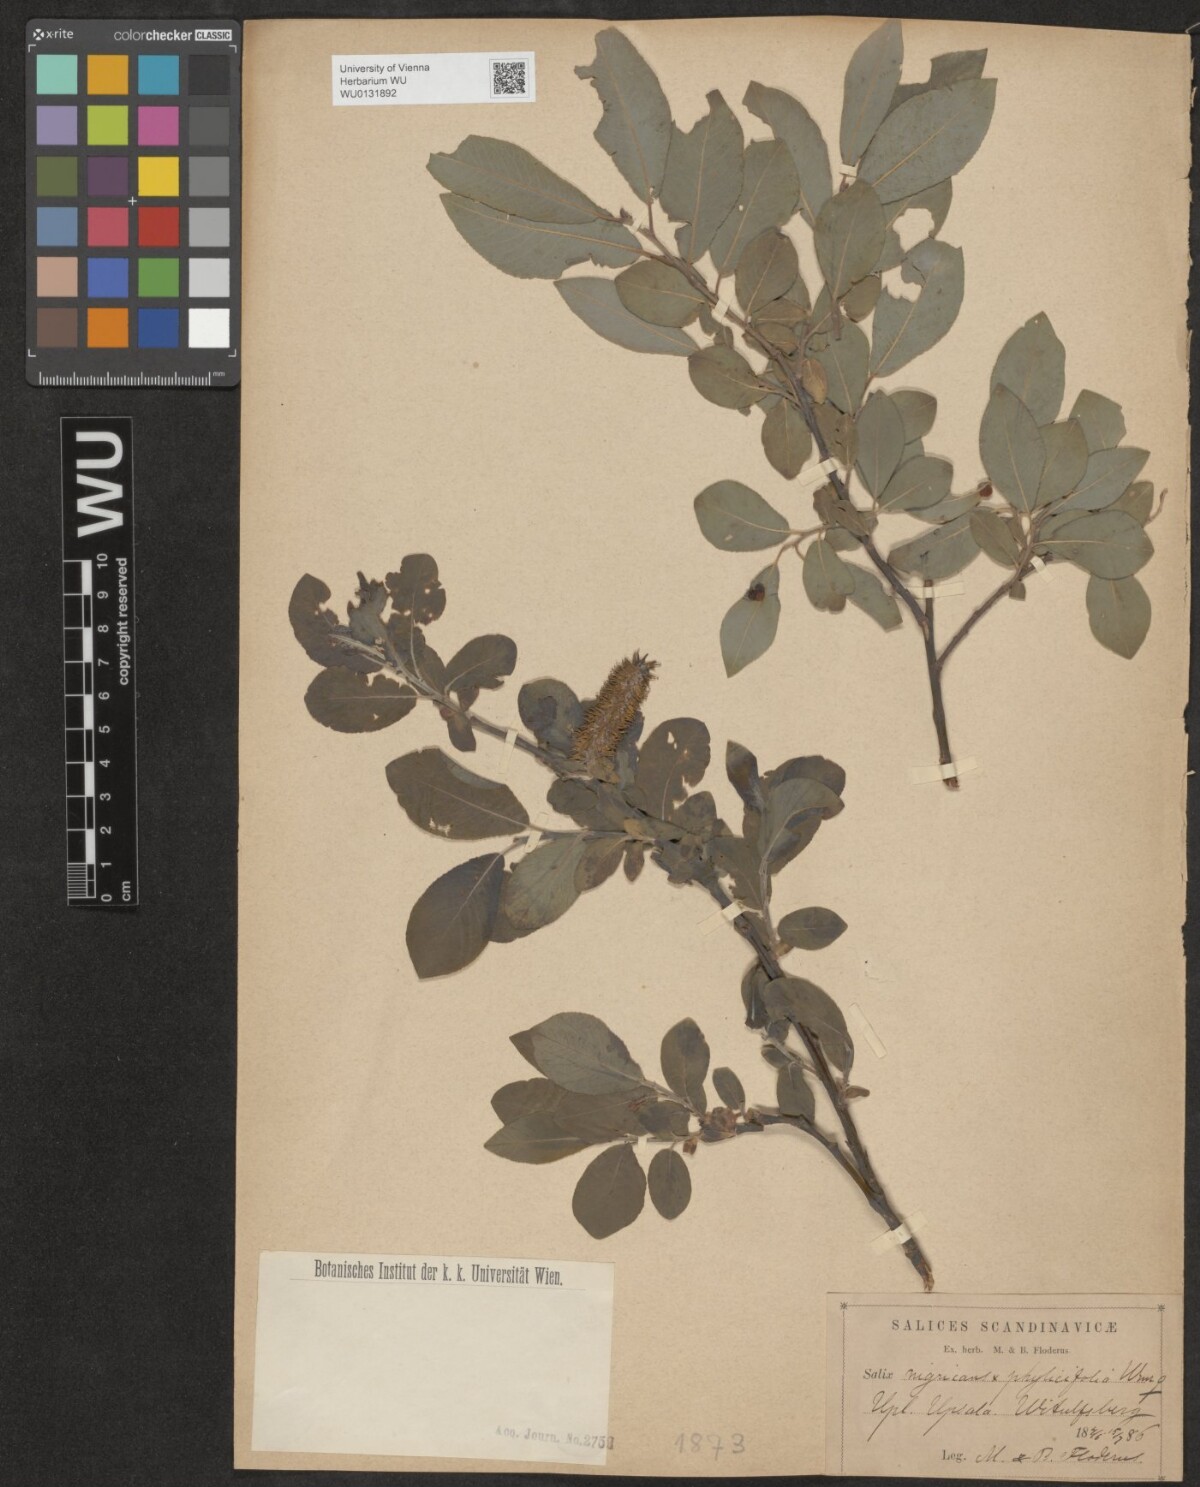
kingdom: Plantae
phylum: Tracheophyta
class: Magnoliopsida
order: Malpighiales
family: Salicaceae
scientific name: Salicaceae
